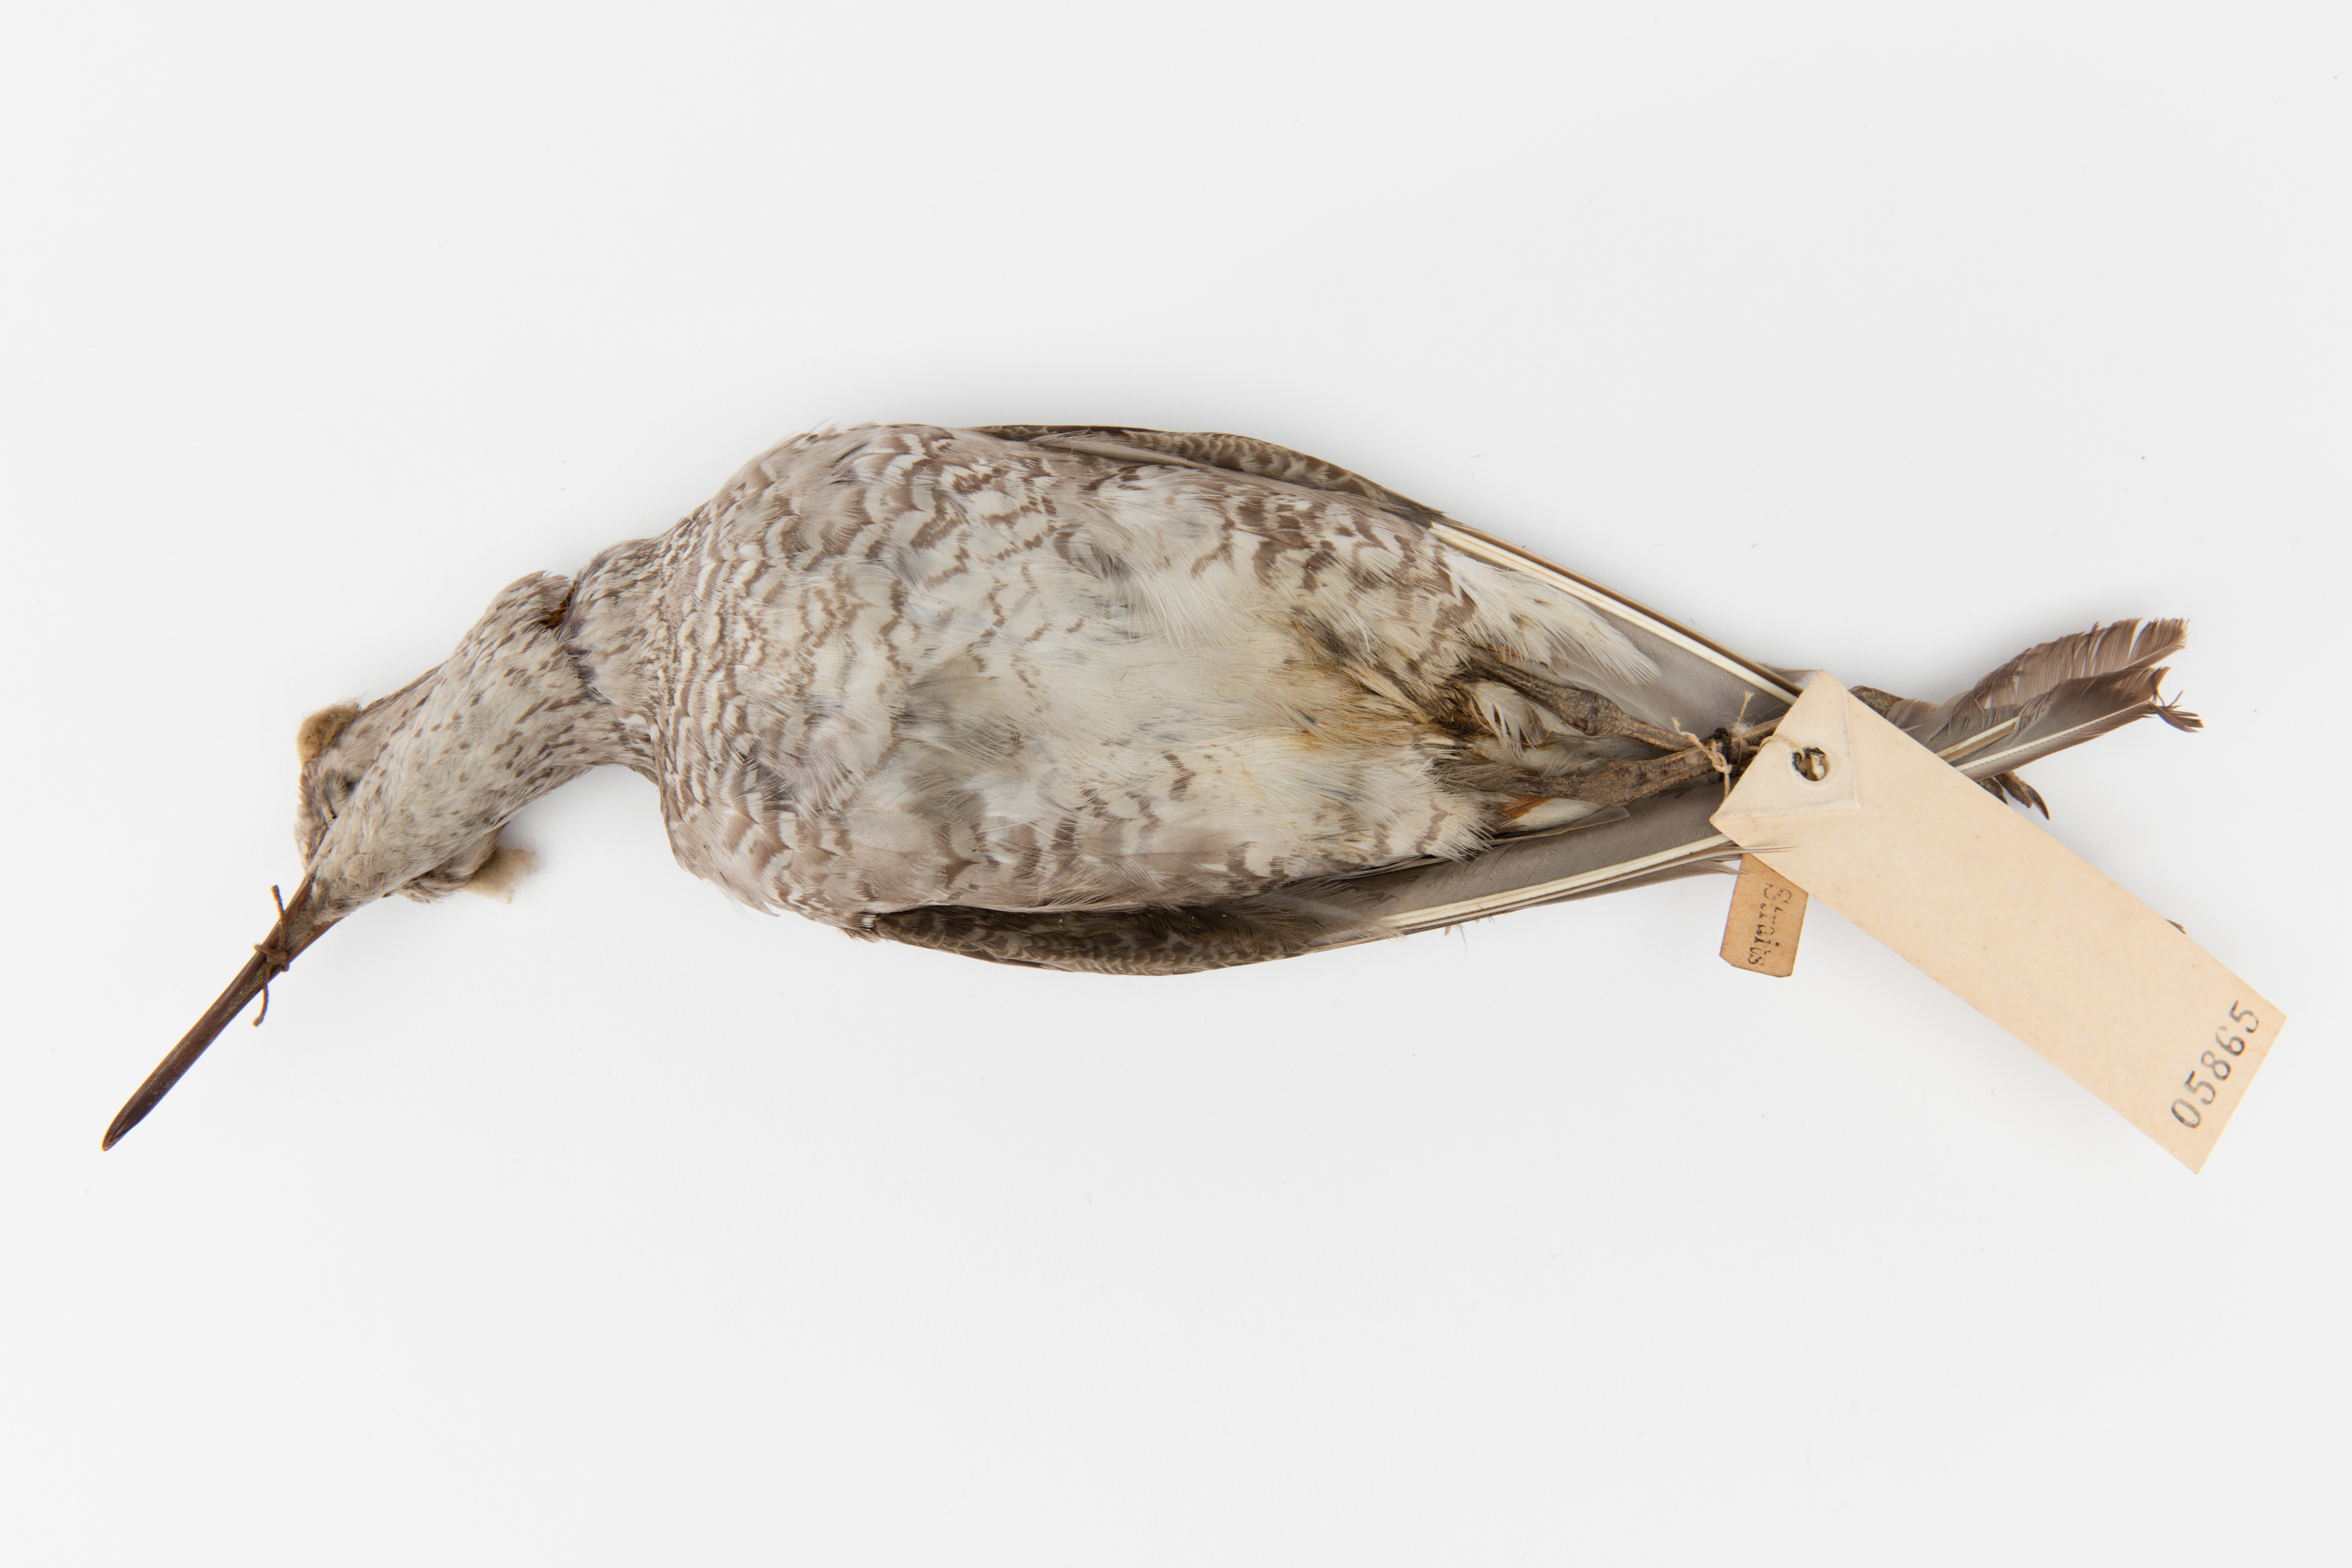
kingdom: Animalia
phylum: Chordata
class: Aves
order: Charadriiformes
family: Scolopacidae
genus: Tringa
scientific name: Tringa brevipes
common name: Grey-tailed tattler
